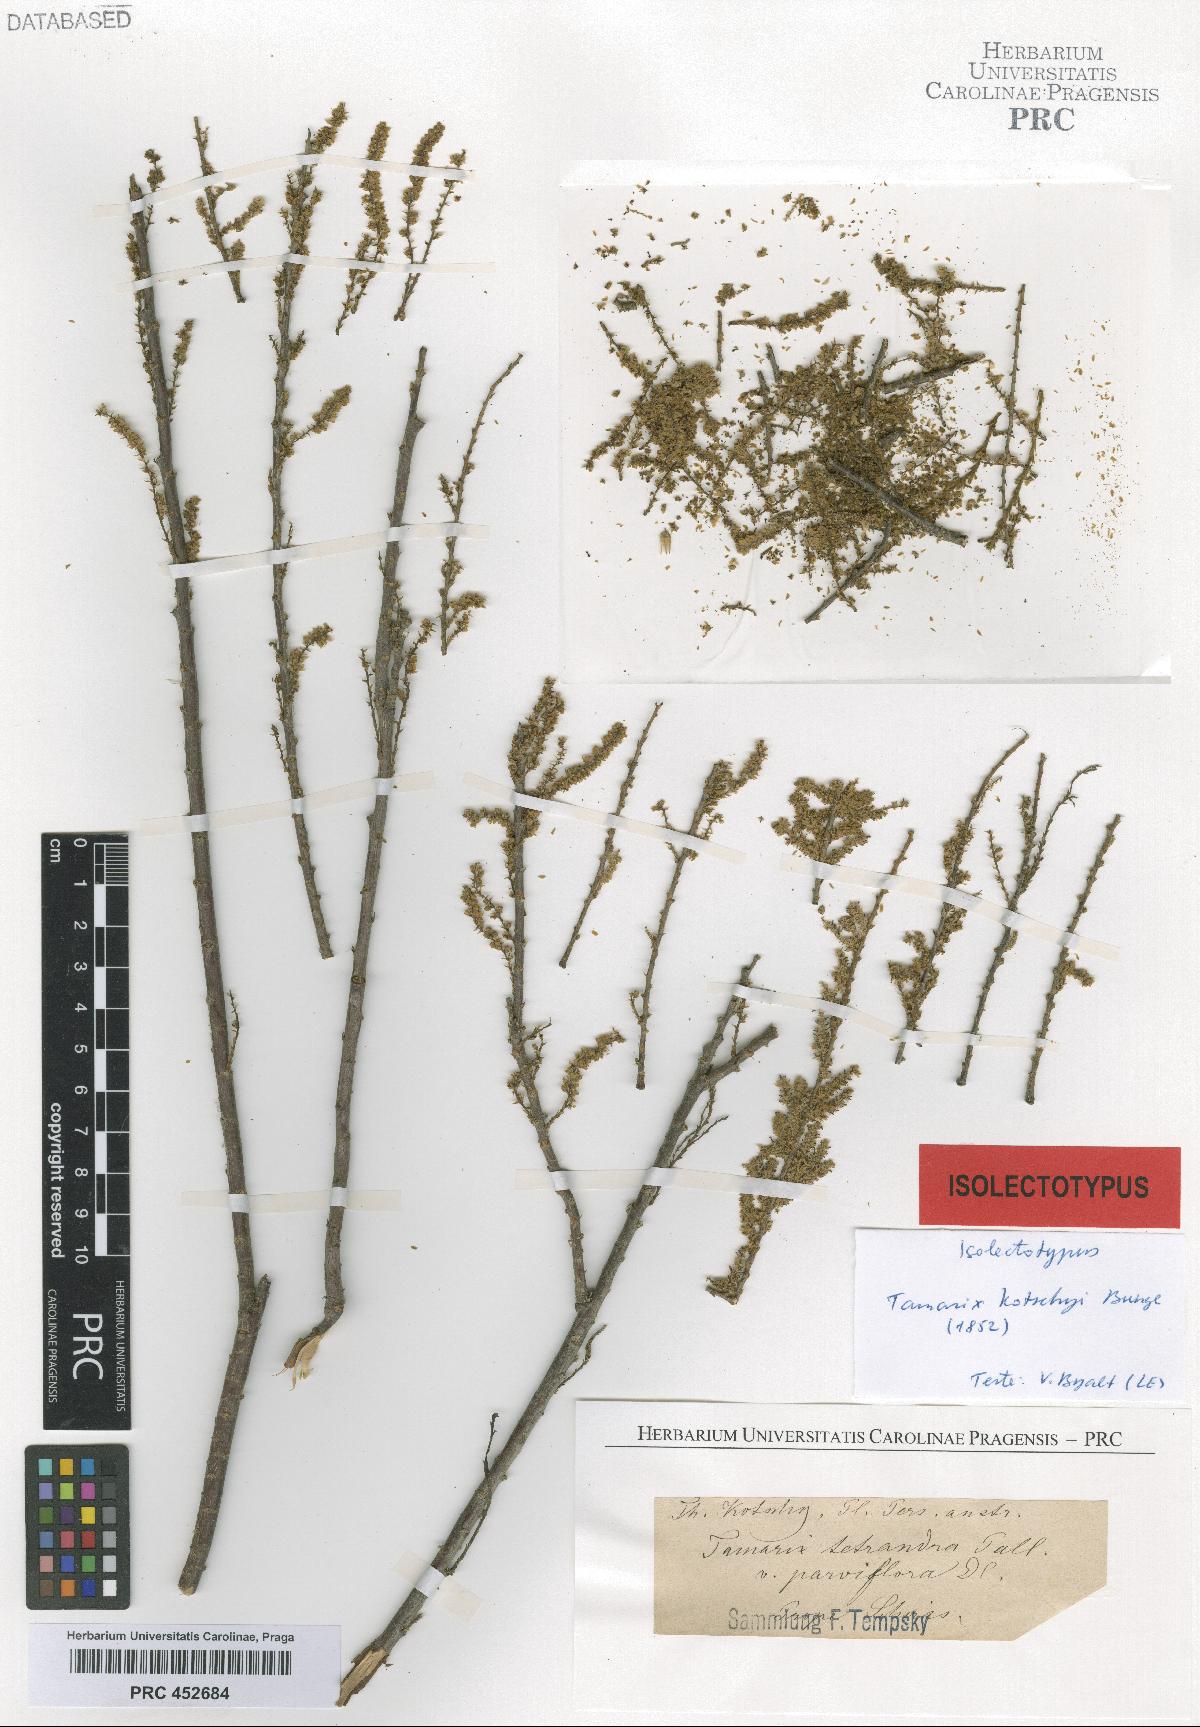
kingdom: Plantae
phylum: Tracheophyta
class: Magnoliopsida
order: Caryophyllales
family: Tamaricaceae
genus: Tamarix
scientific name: Tamarix kotschyi
